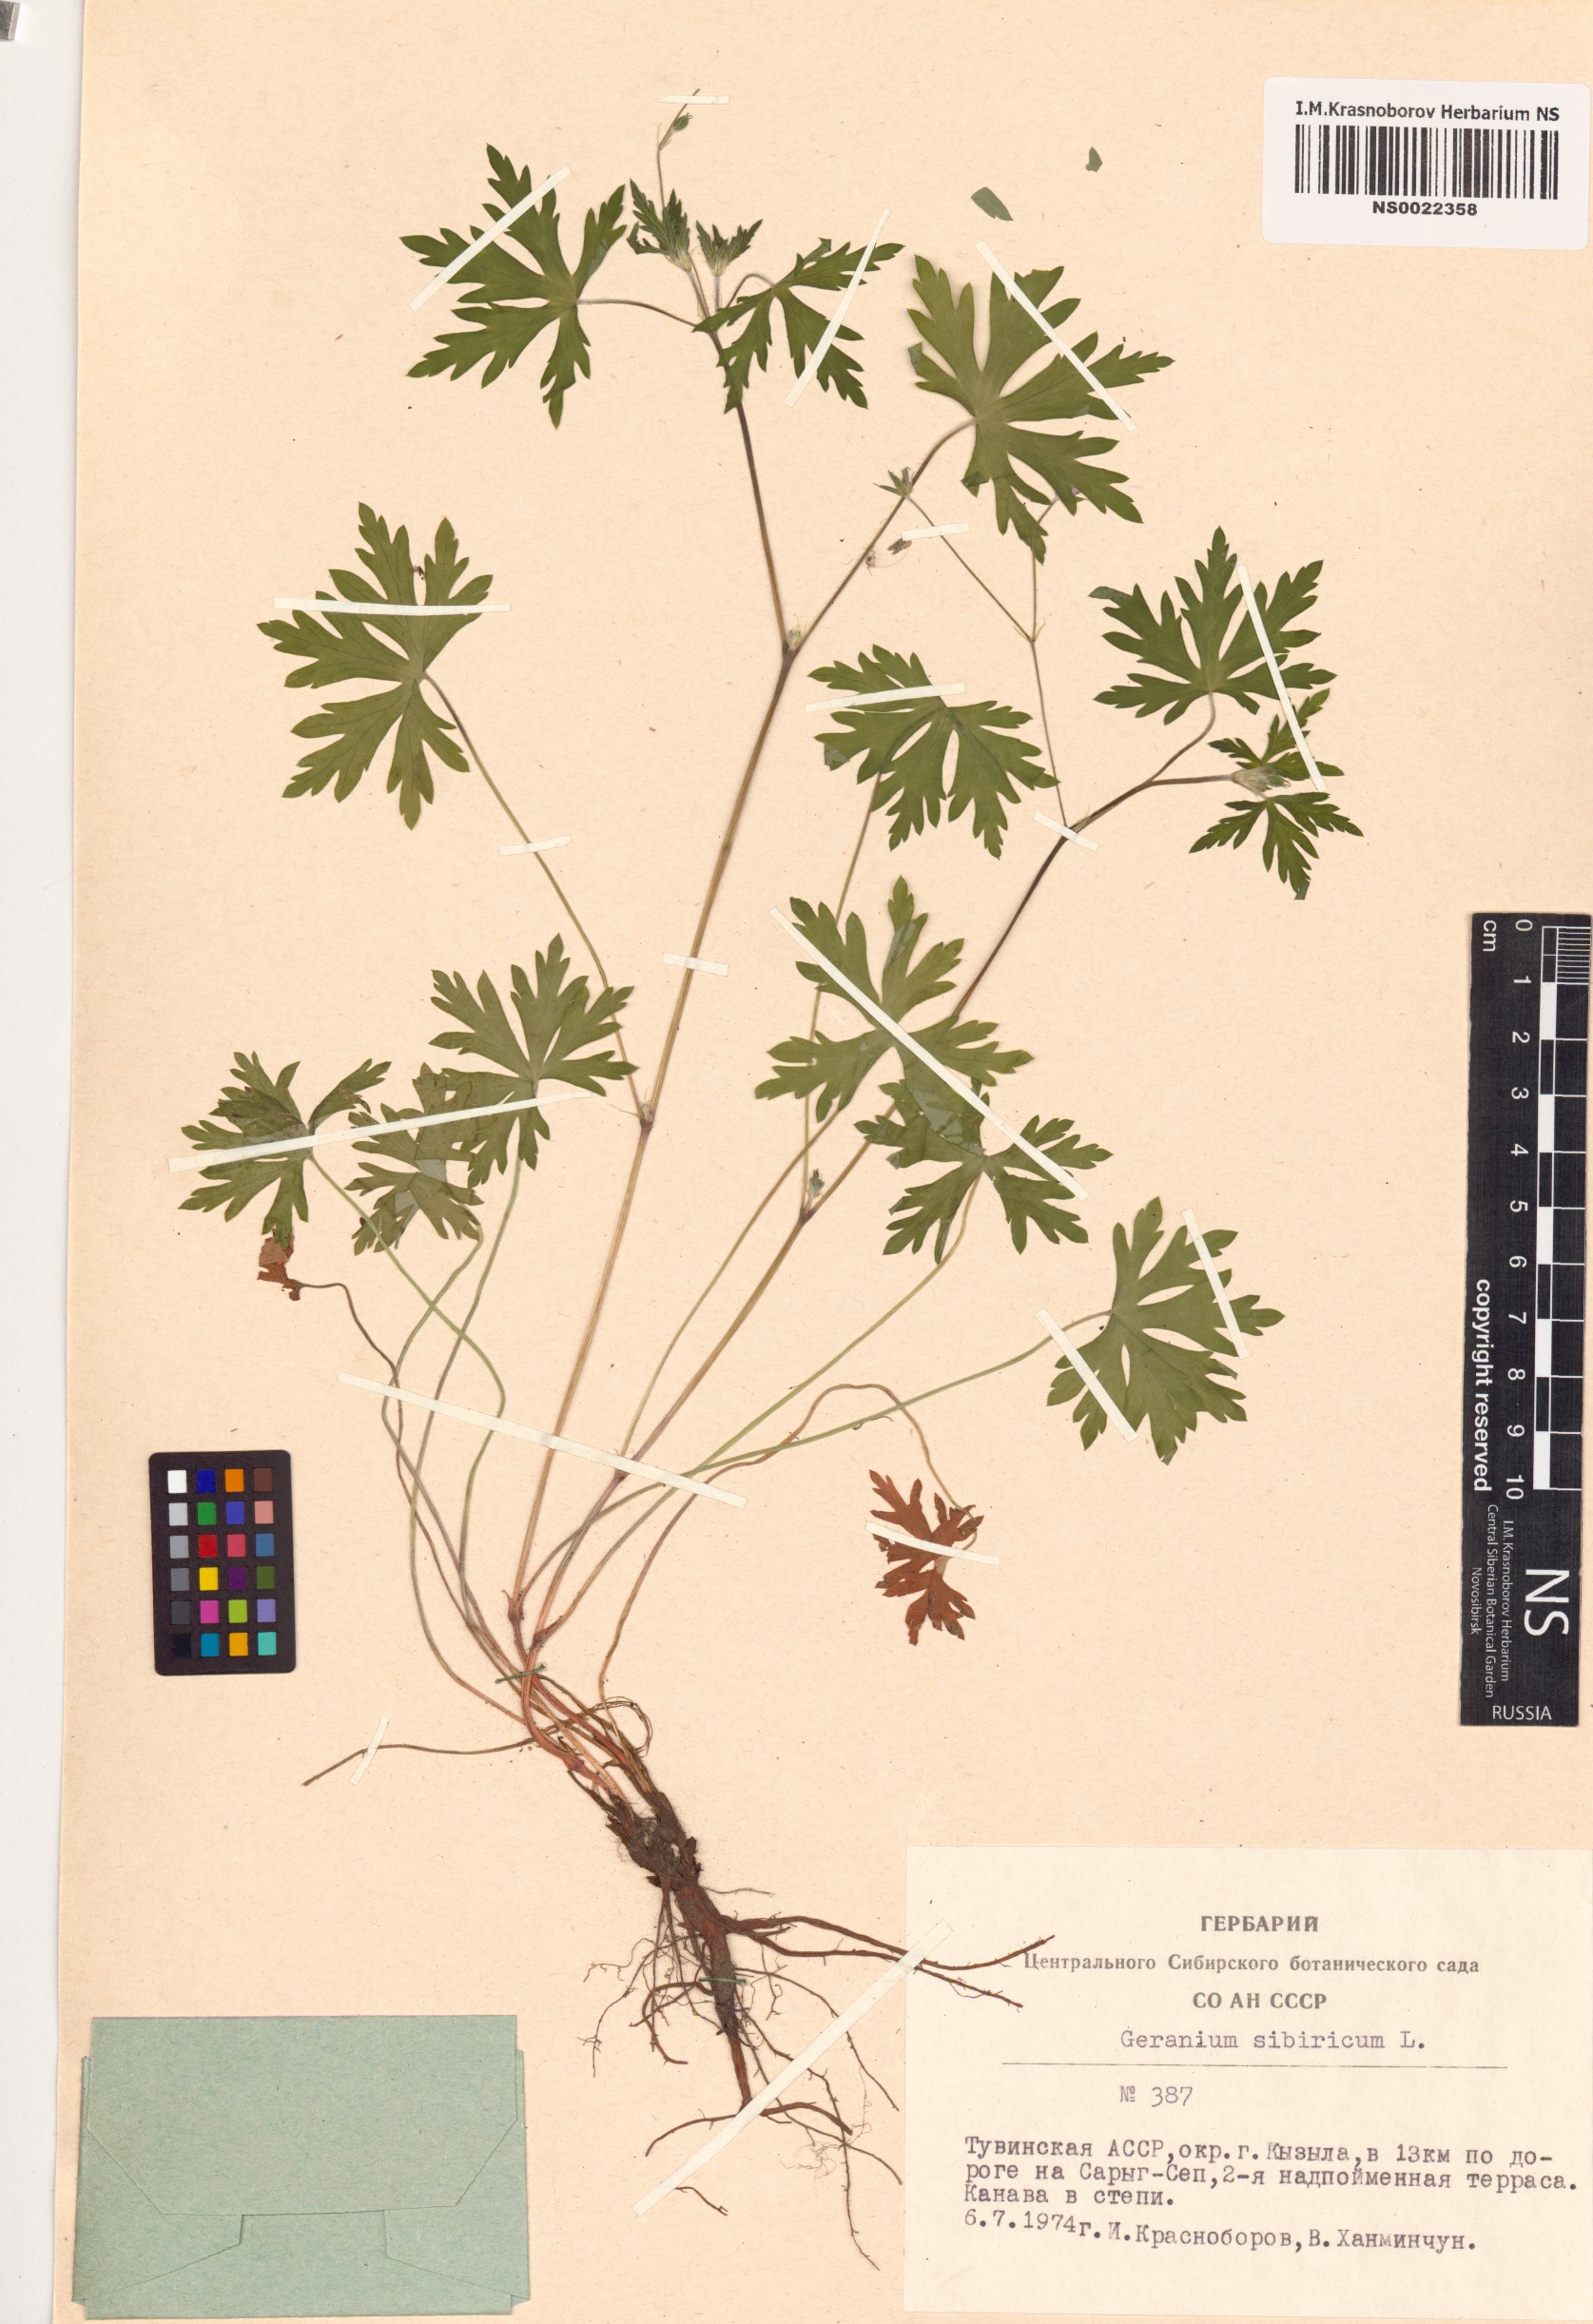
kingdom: Plantae
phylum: Tracheophyta
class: Magnoliopsida
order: Geraniales
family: Geraniaceae
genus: Geranium
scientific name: Geranium sibiricum
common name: Siberian crane's-bill
